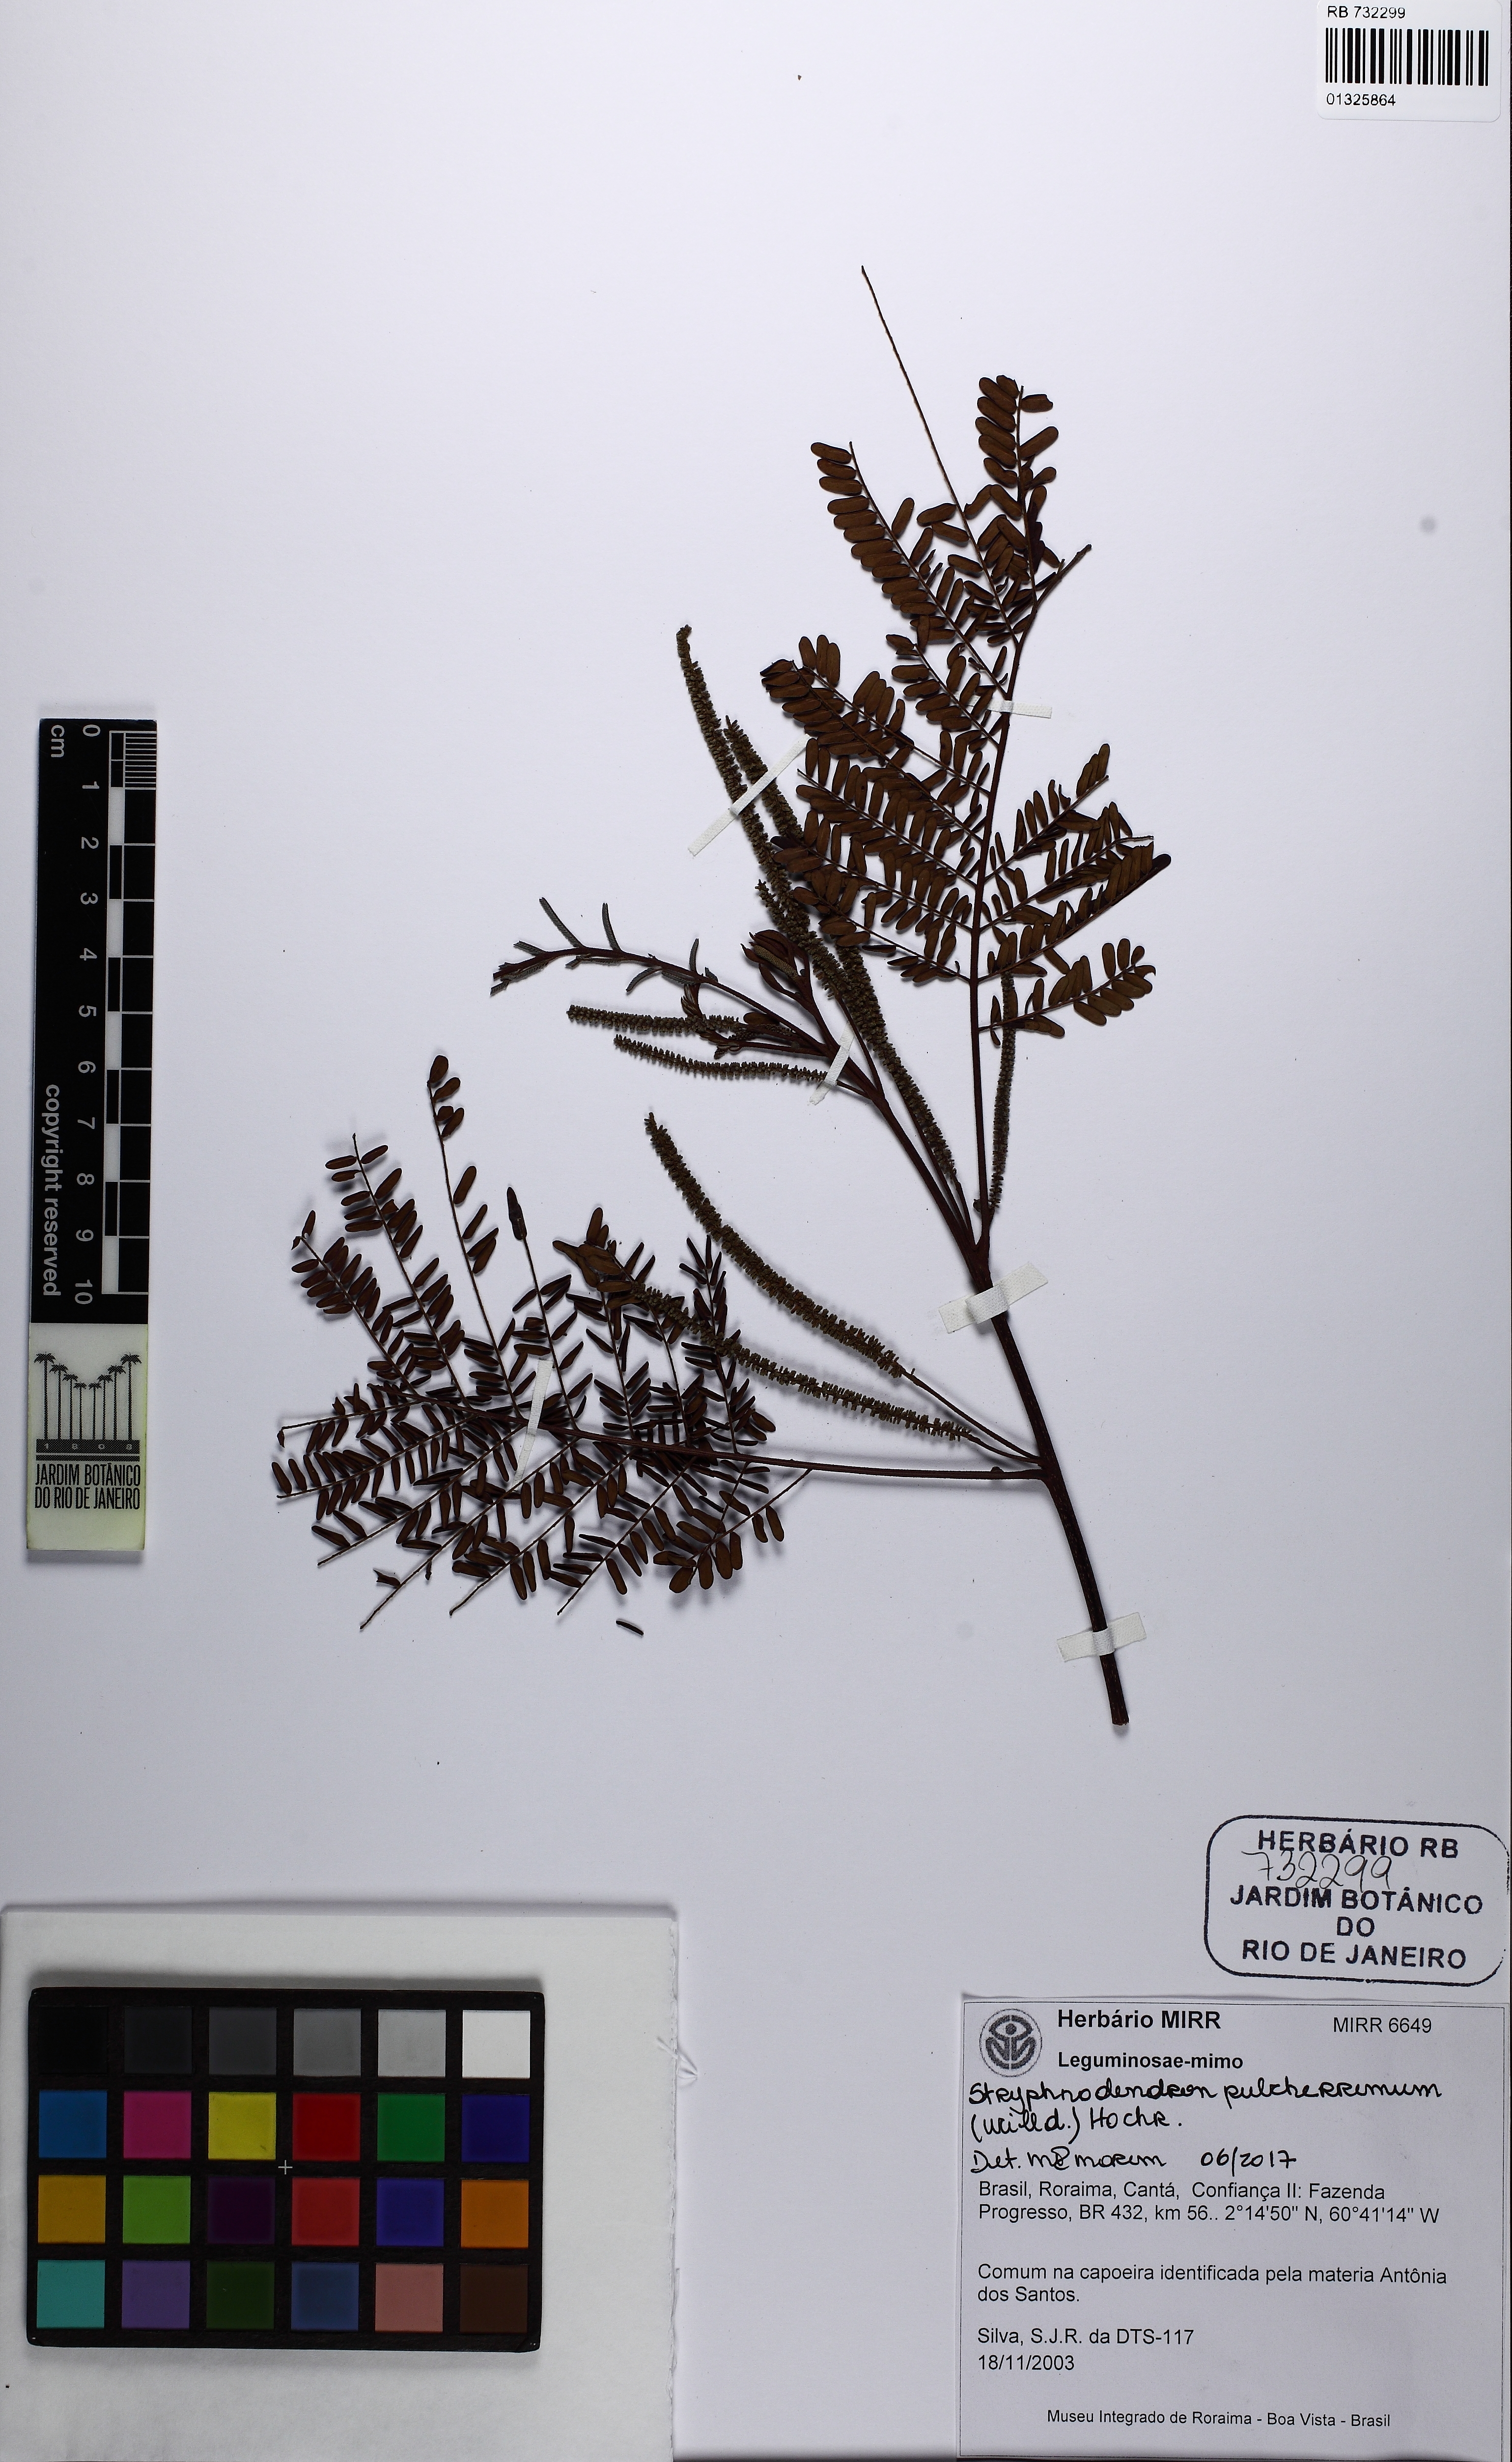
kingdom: Plantae
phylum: Tracheophyta
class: Magnoliopsida
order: Fabales
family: Fabaceae
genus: Stryphnodendron
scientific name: Stryphnodendron pulcherrimum
